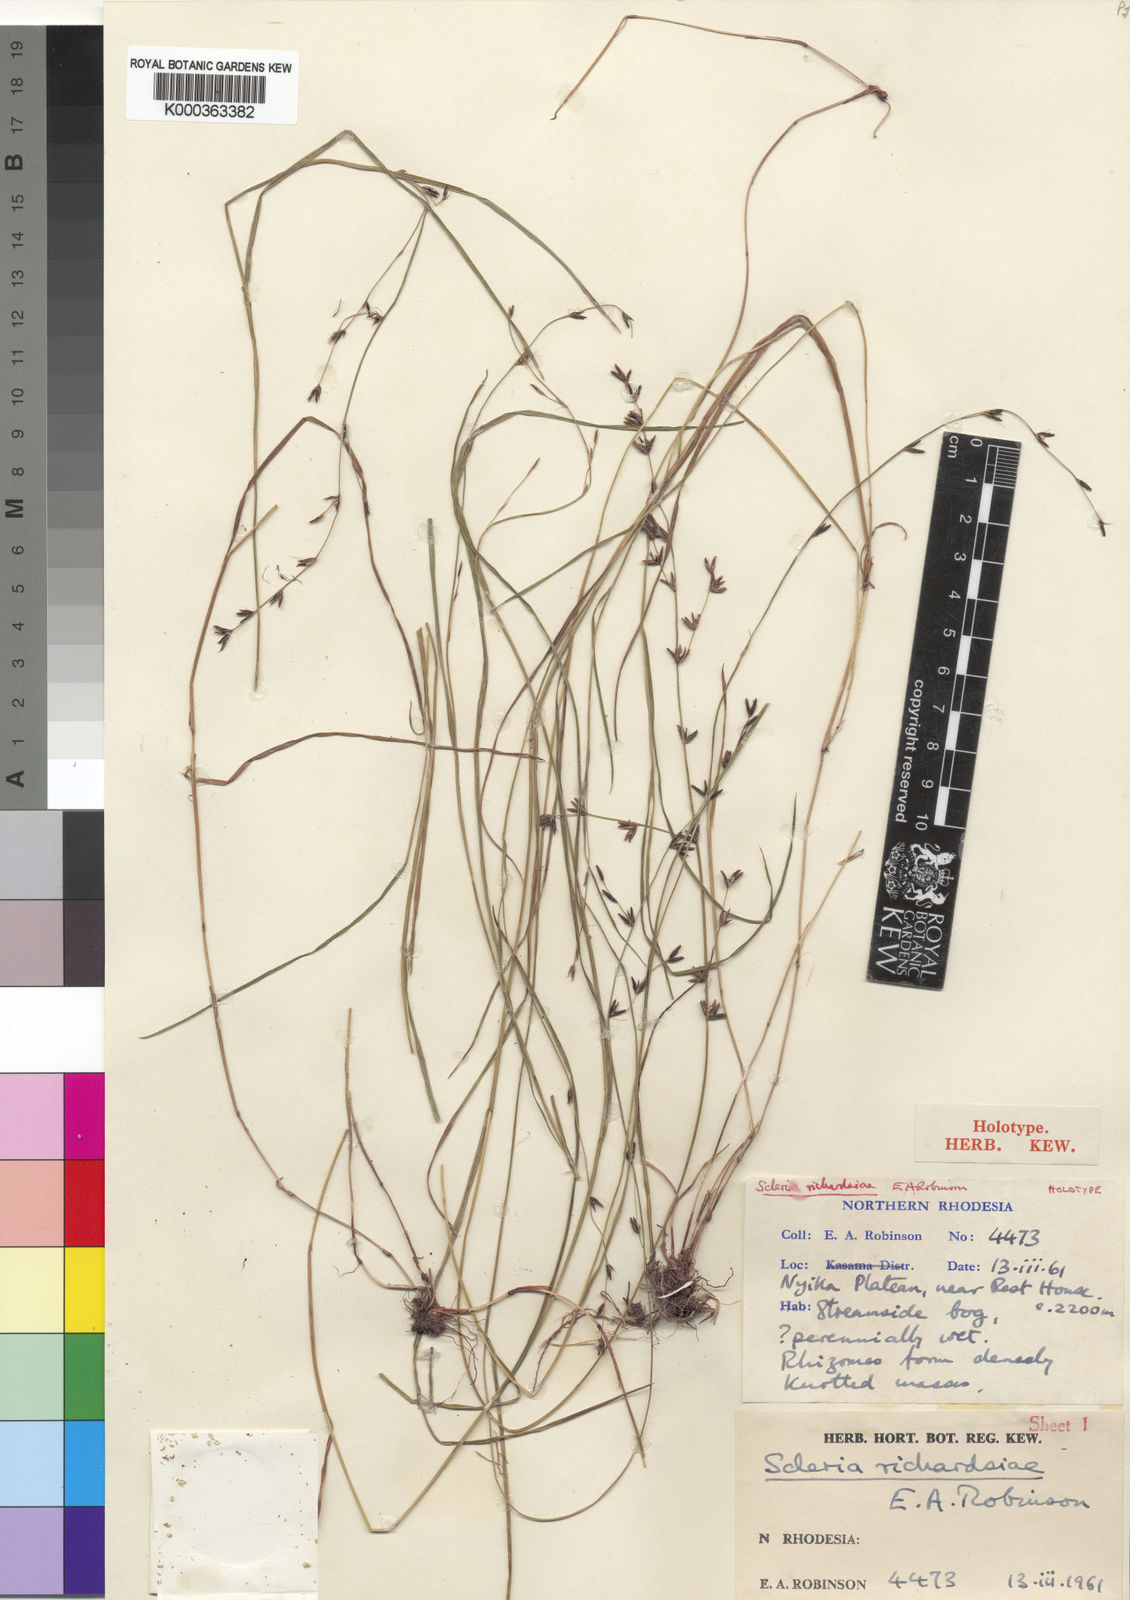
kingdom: Plantae
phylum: Tracheophyta
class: Liliopsida
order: Poales
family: Cyperaceae
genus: Scleria
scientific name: Scleria richardsiae
